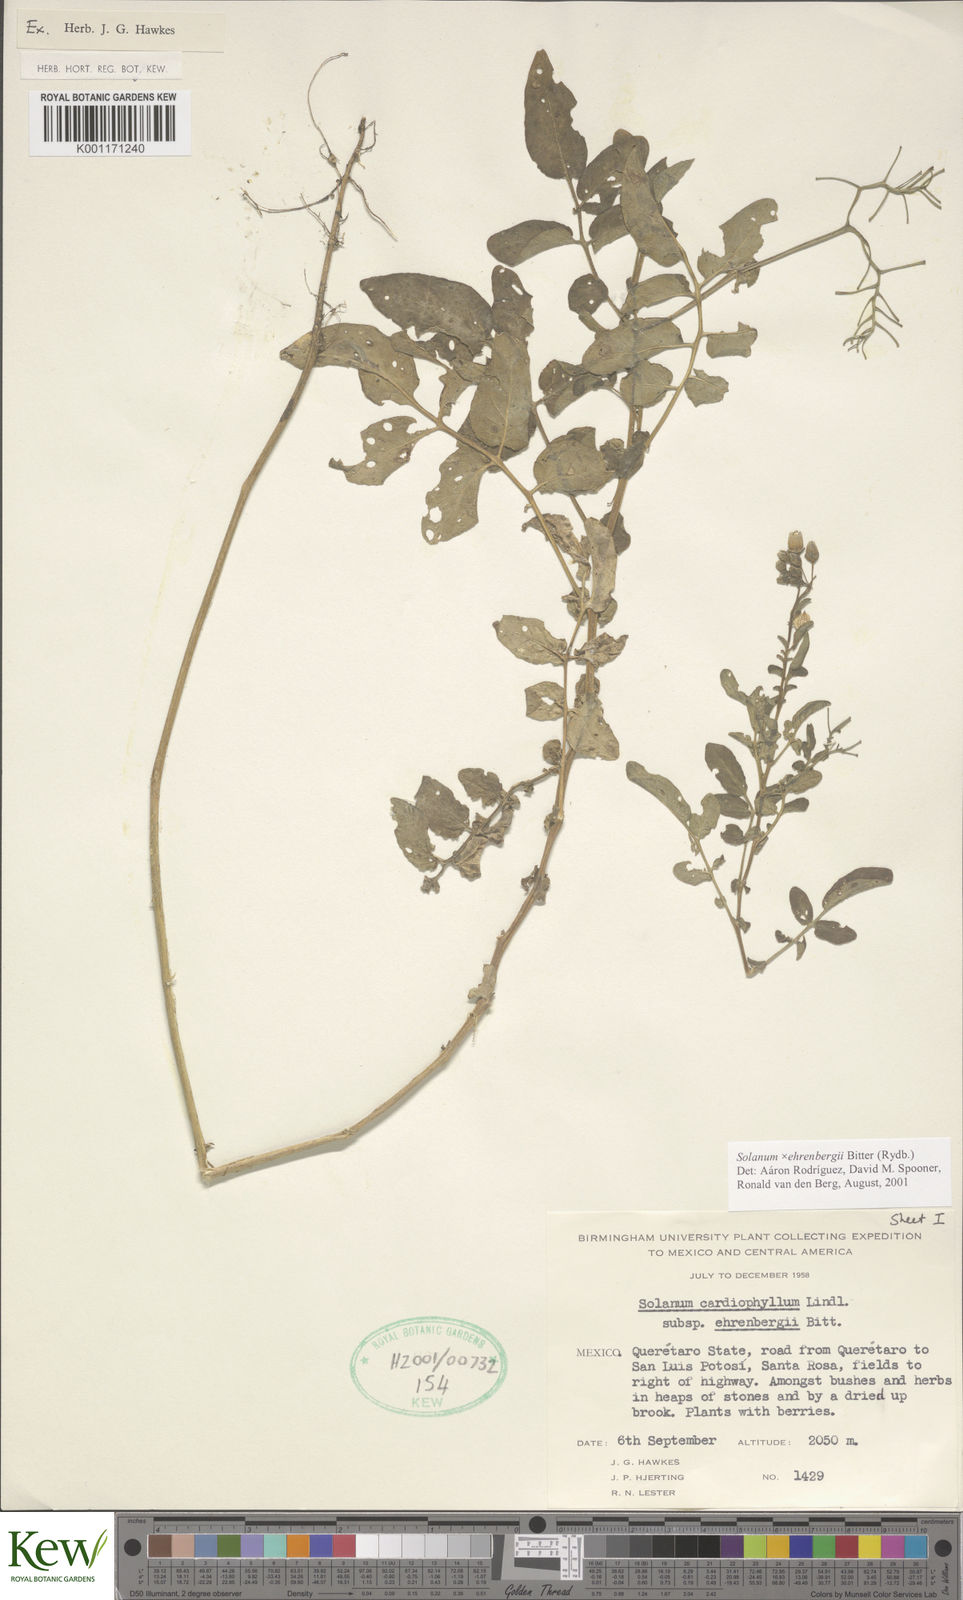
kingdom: Plantae
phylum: Tracheophyta
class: Magnoliopsida
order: Solanales
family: Solanaceae
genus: Solanum
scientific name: Solanum edinense
